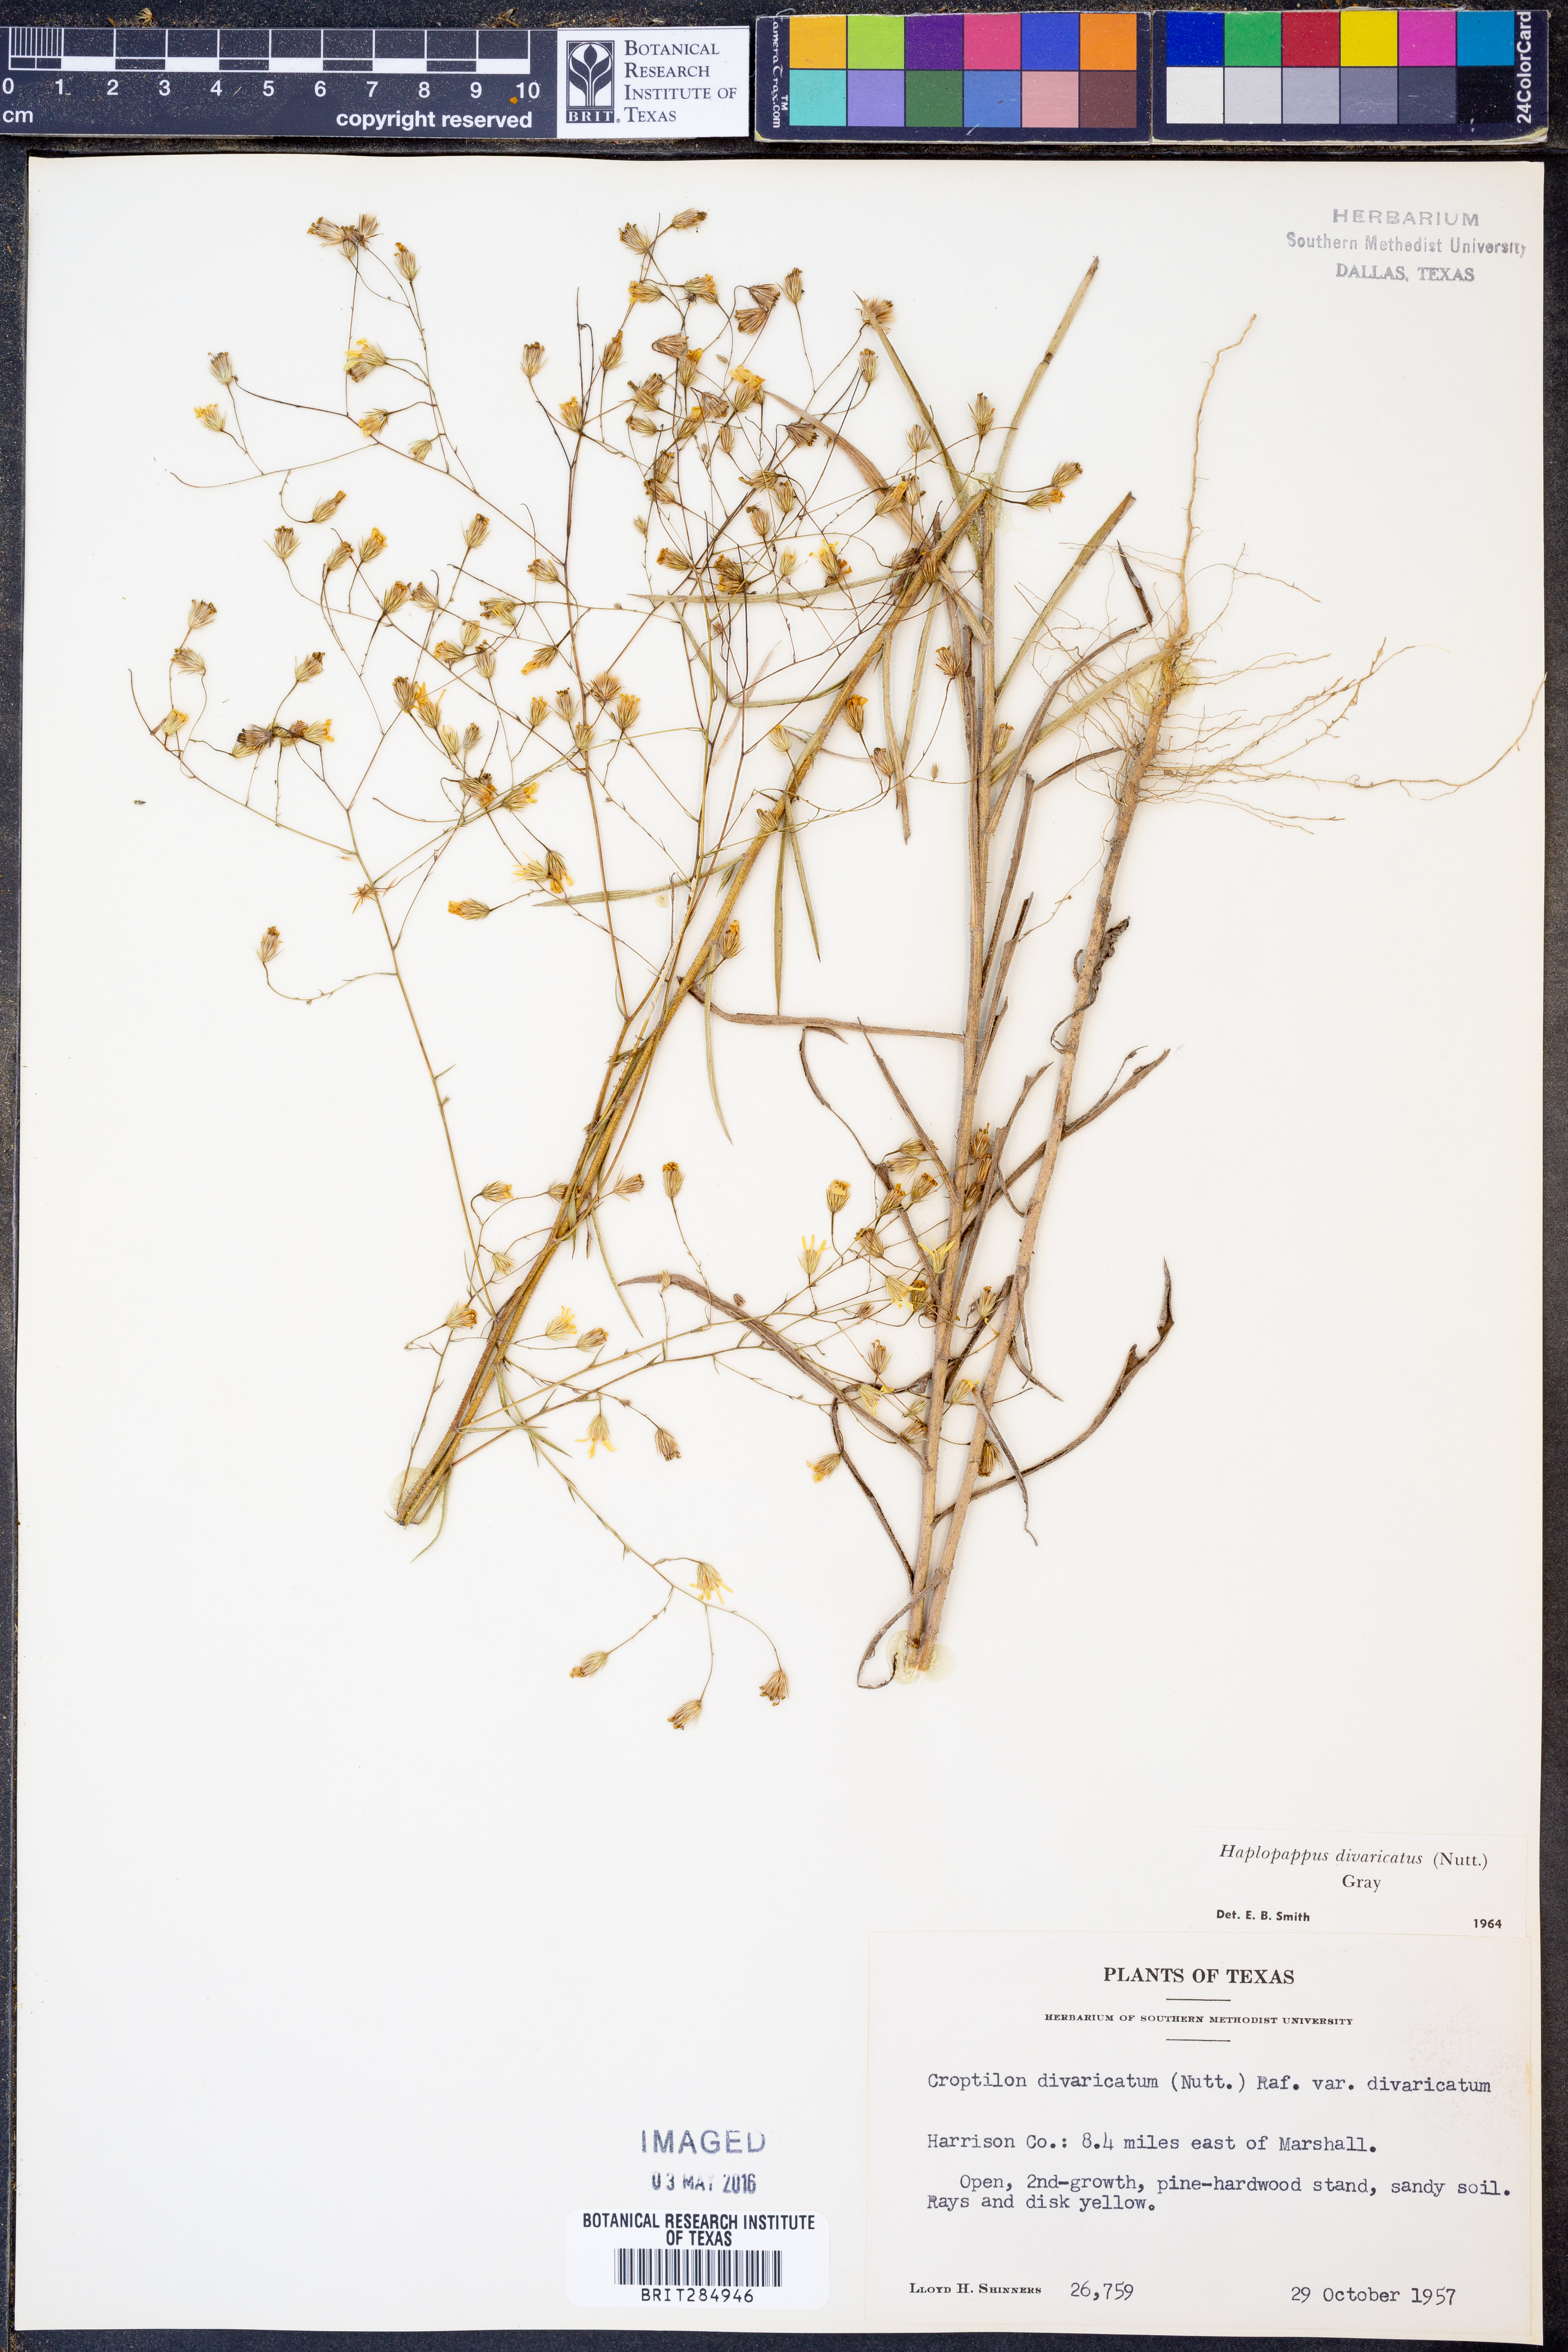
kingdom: Plantae
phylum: Tracheophyta
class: Magnoliopsida
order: Asterales
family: Asteraceae
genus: Croptilon
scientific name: Croptilon divaricatum
